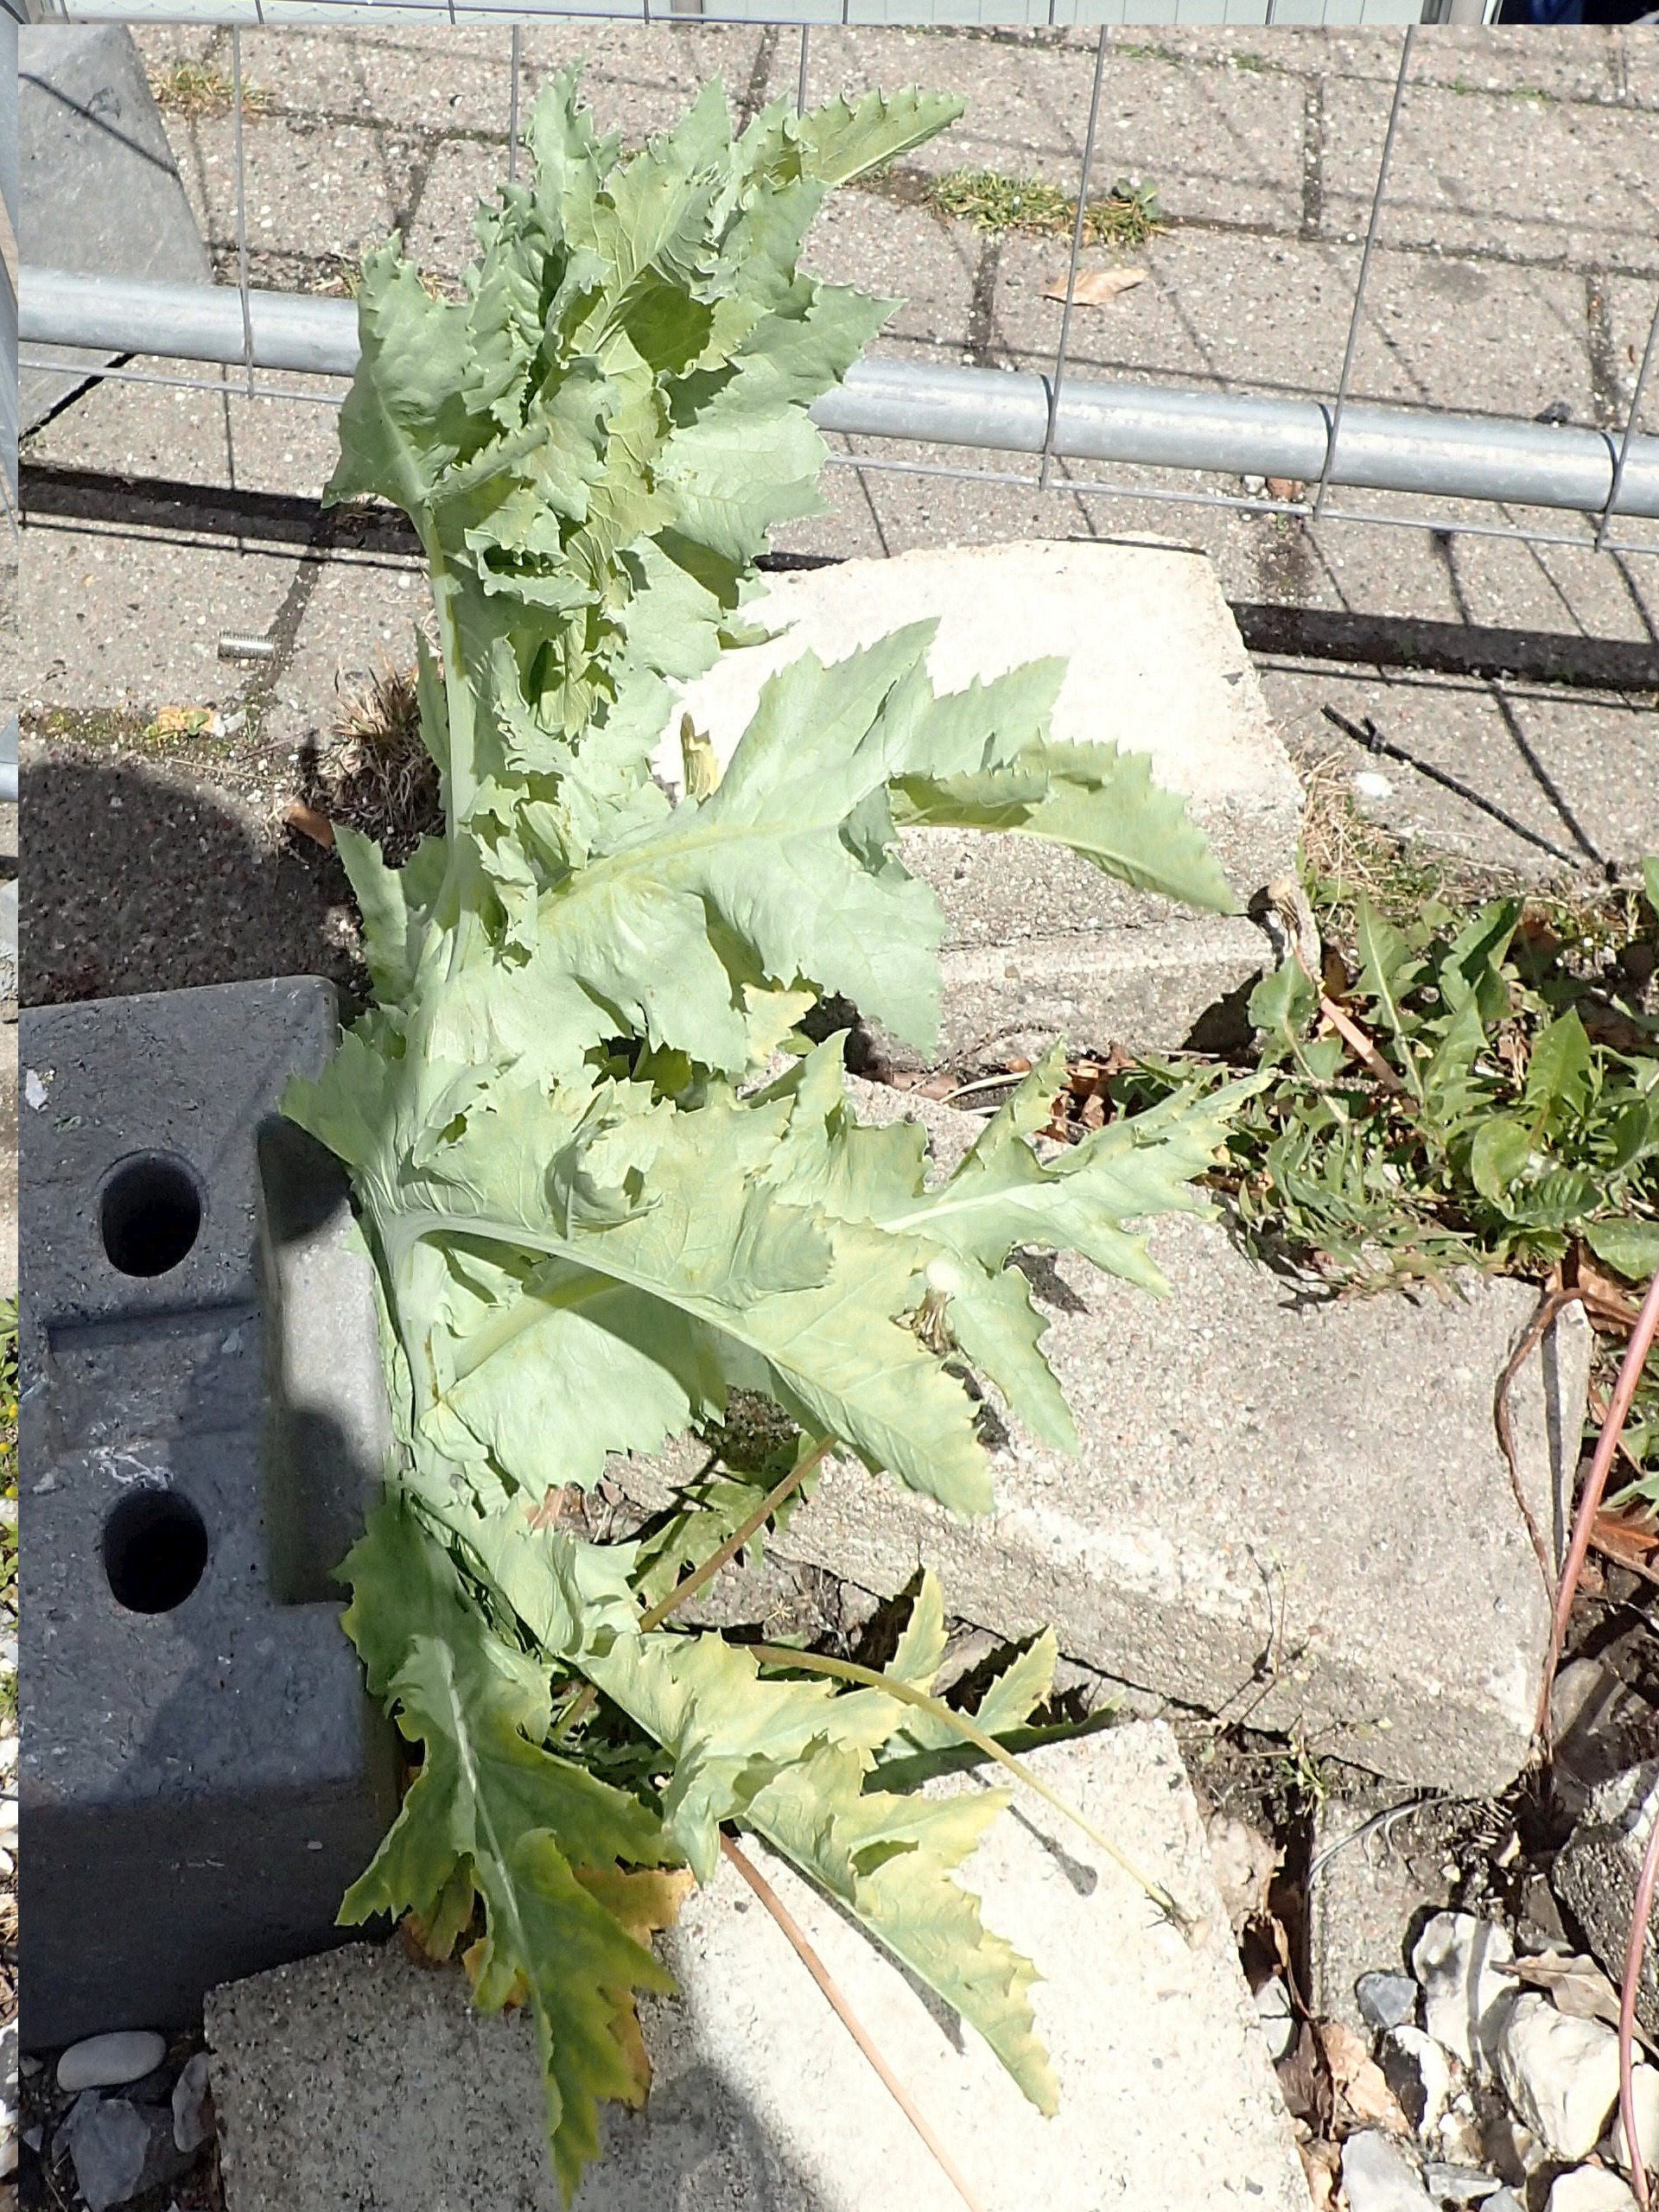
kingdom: Plantae
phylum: Tracheophyta
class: Magnoliopsida
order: Ranunculales
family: Papaveraceae
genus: Papaver
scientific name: Papaver somniferum
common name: Opium-valmue
